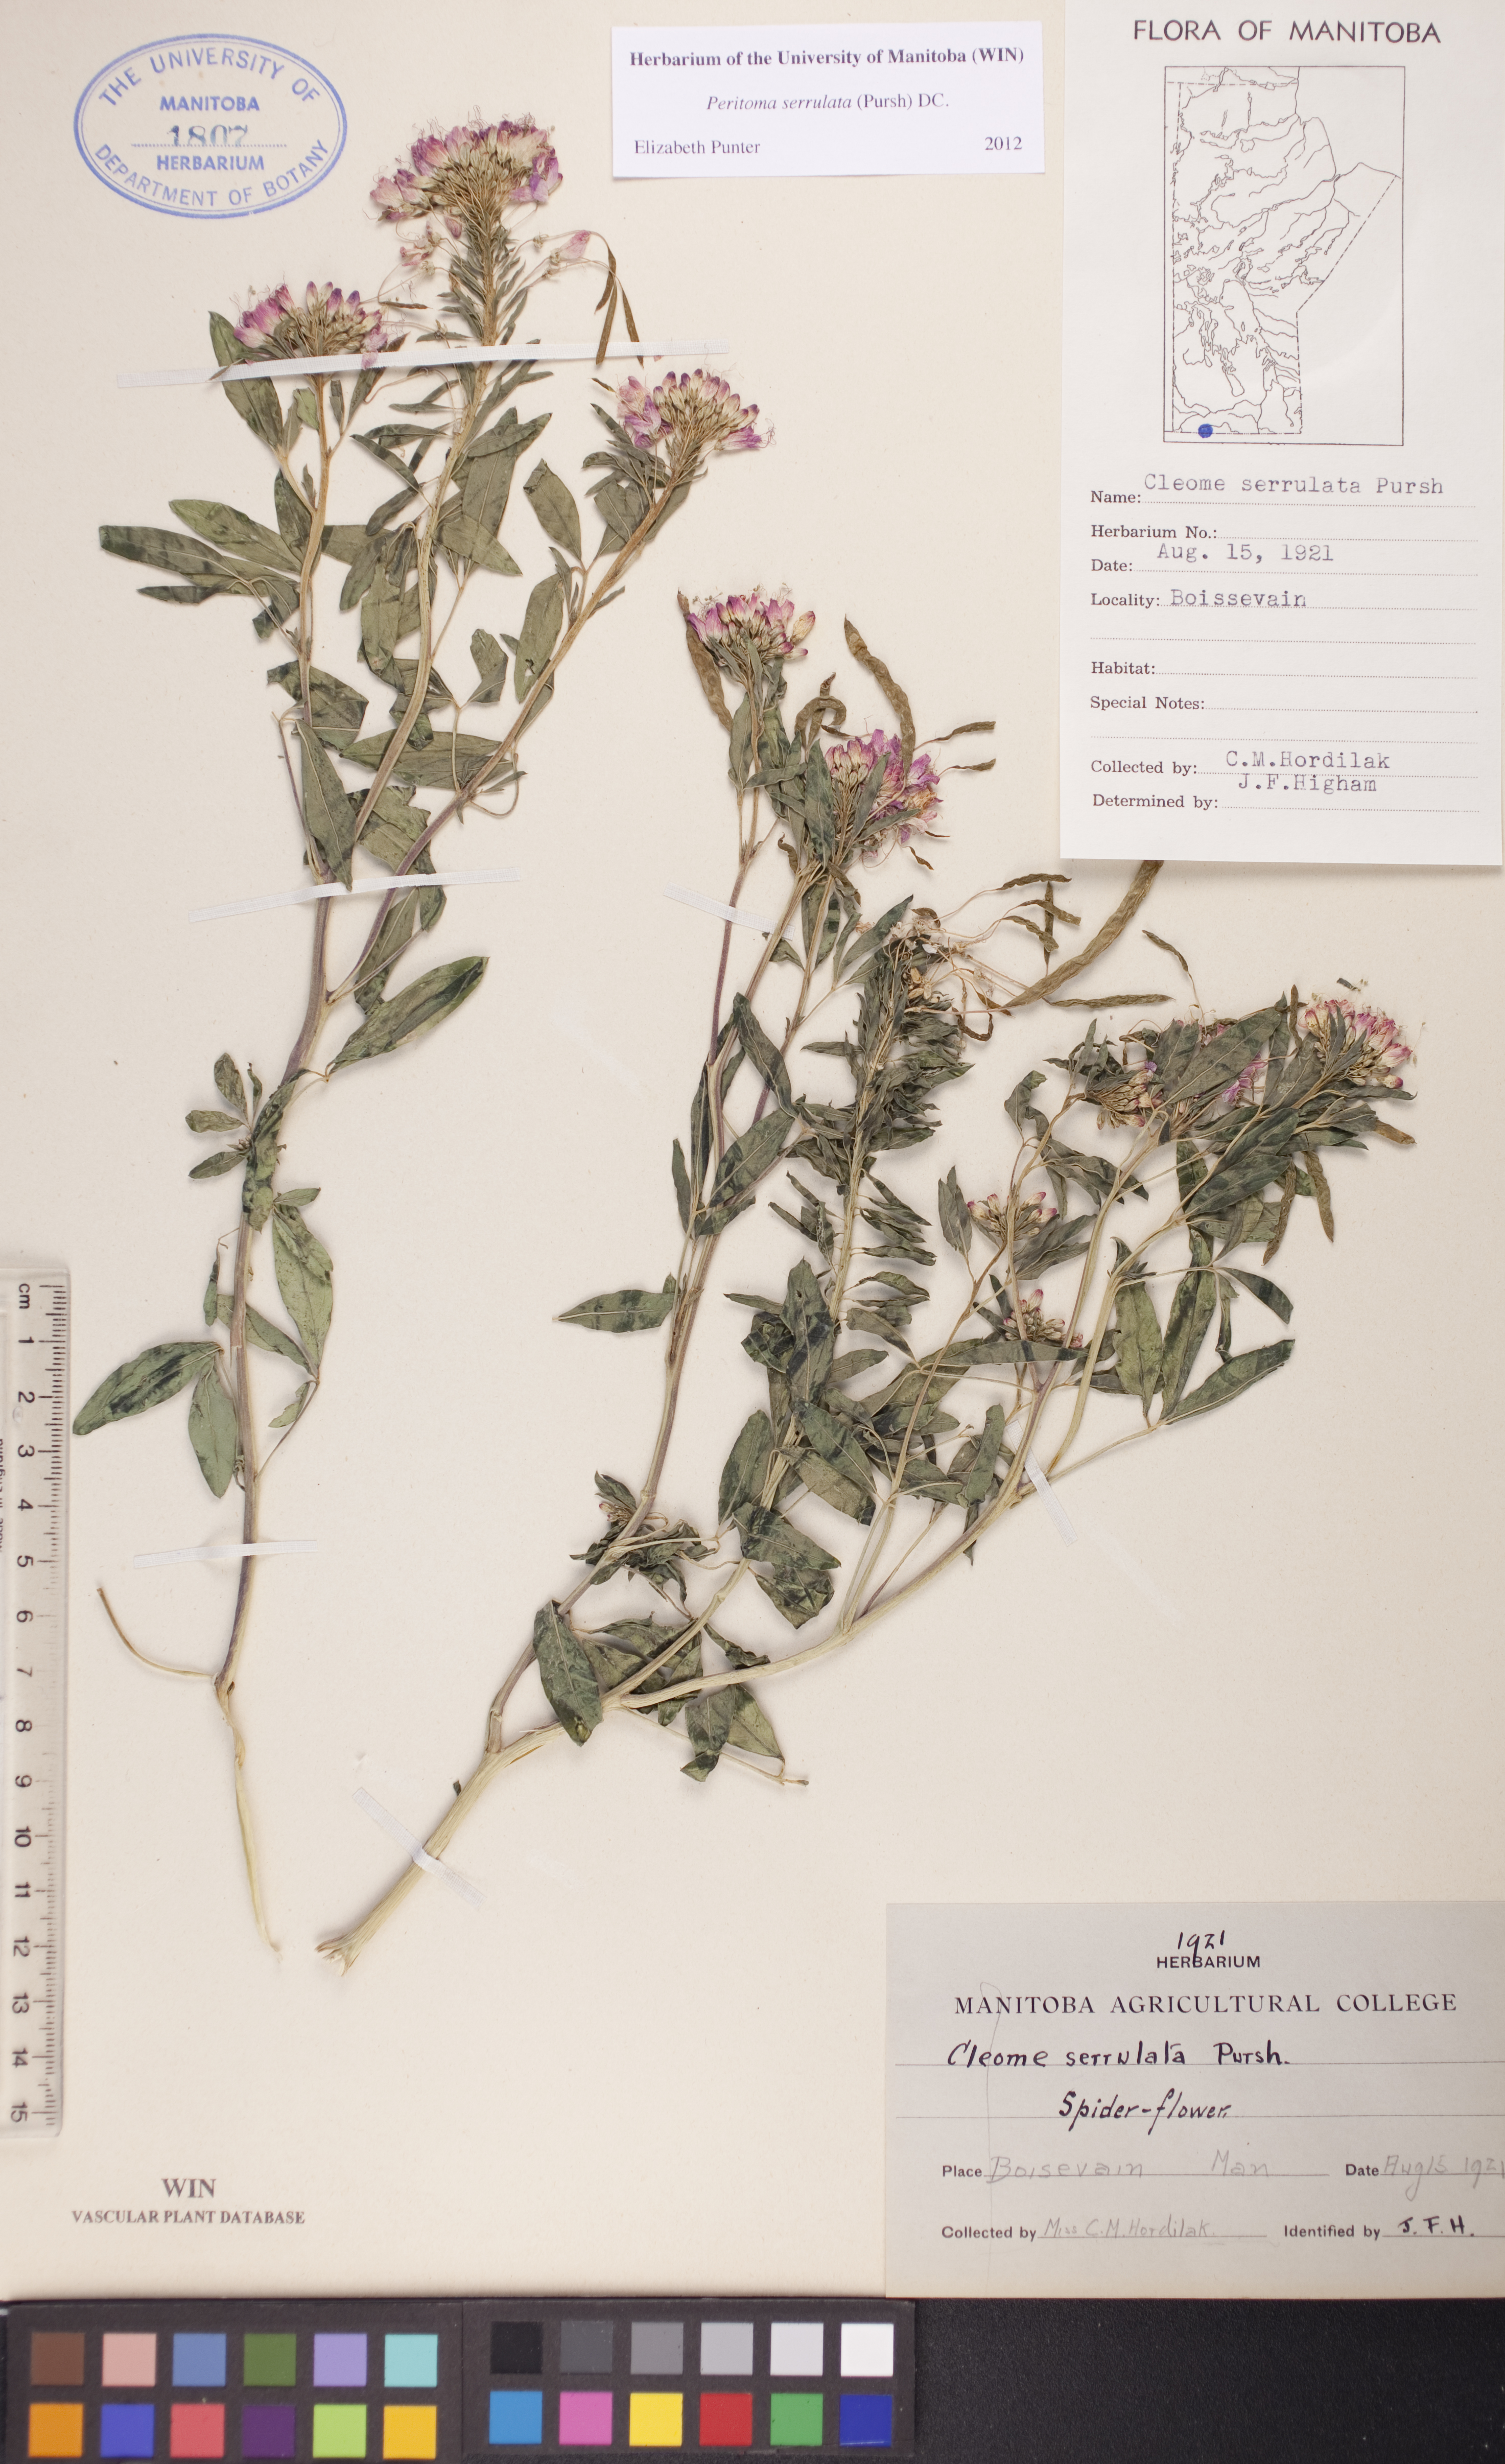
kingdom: Plantae
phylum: Tracheophyta
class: Magnoliopsida
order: Brassicales
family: Cleomaceae
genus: Cleomella
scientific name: Cleomella serrulata
